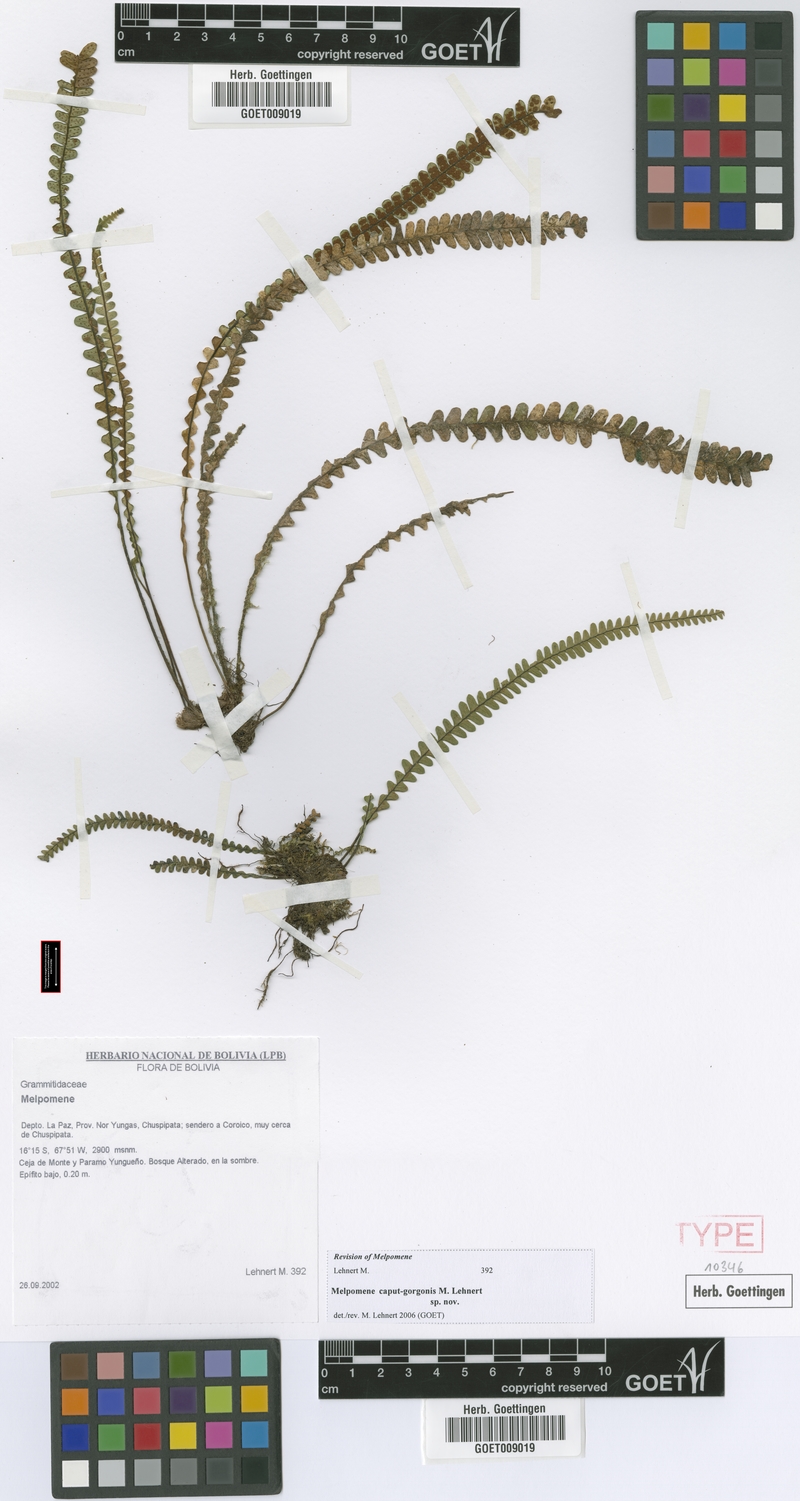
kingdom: Plantae
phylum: Tracheophyta
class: Polypodiopsida
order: Polypodiales
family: Polypodiaceae
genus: Melpomene
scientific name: Melpomene caput-gorgonis
